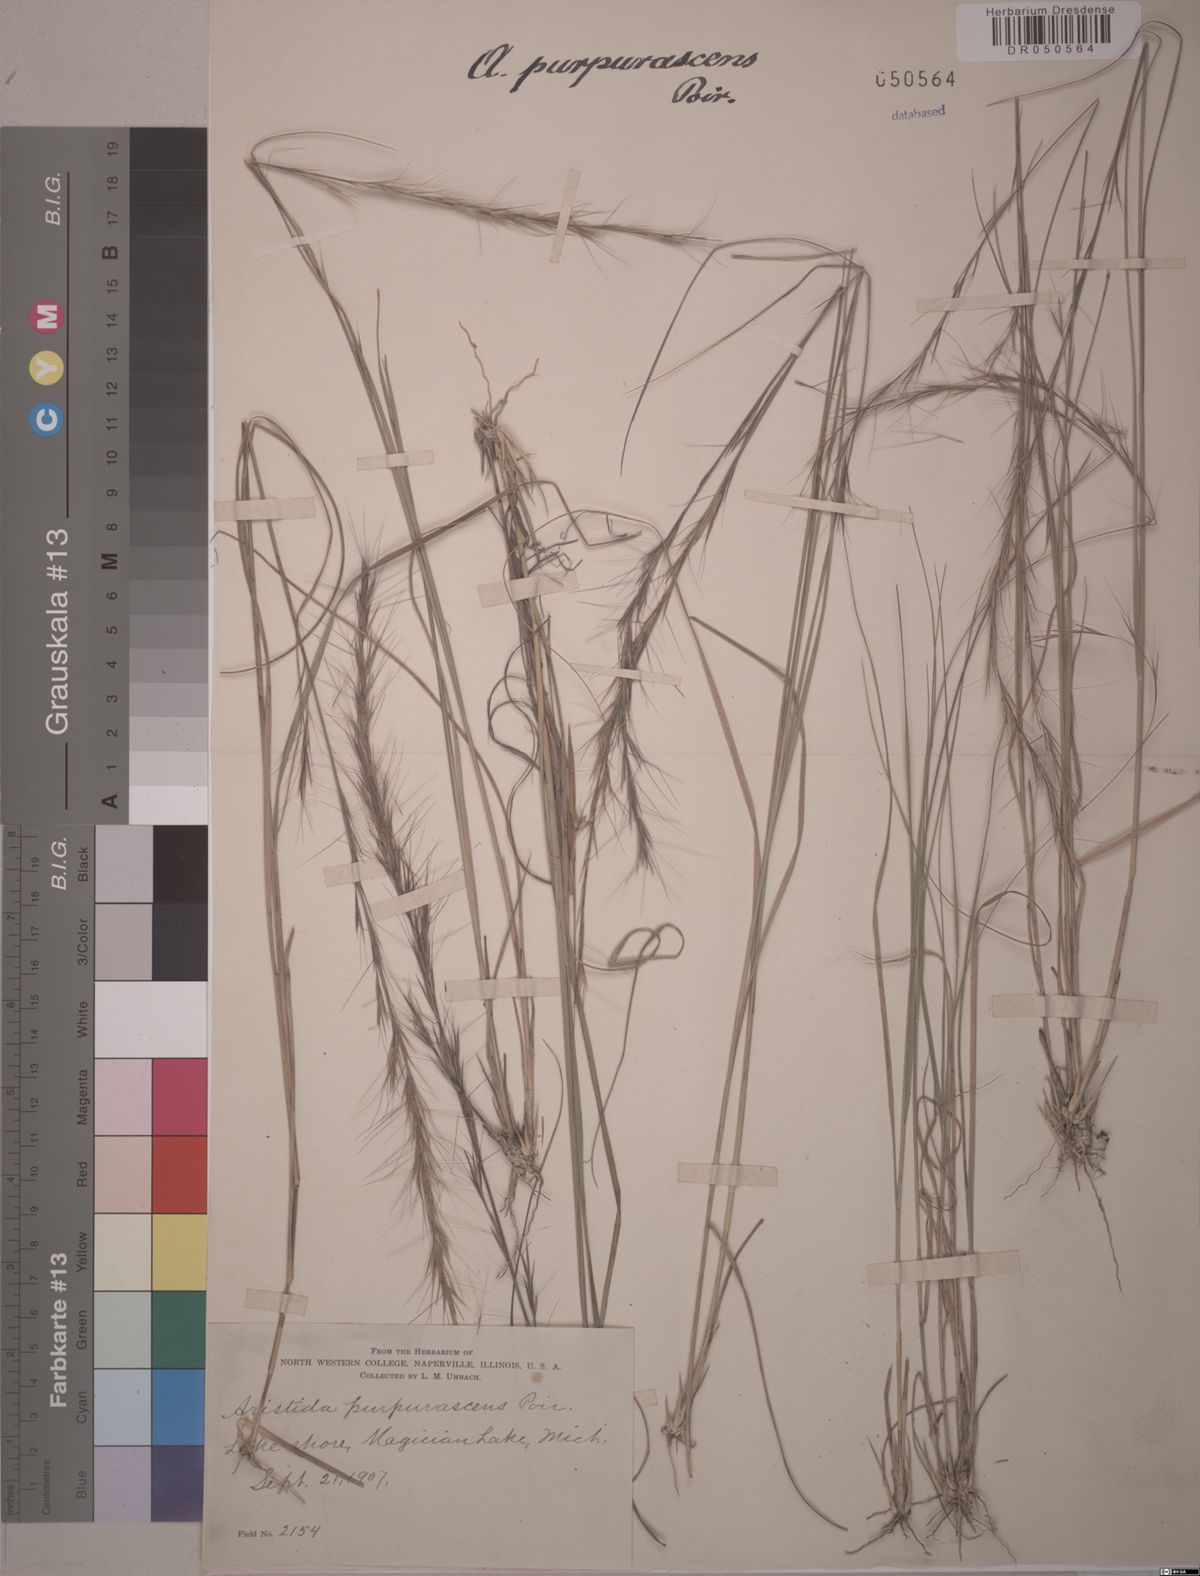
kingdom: Plantae
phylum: Tracheophyta
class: Liliopsida
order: Poales
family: Poaceae
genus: Aristida
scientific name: Aristida purpurascens
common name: Arrow-feather
